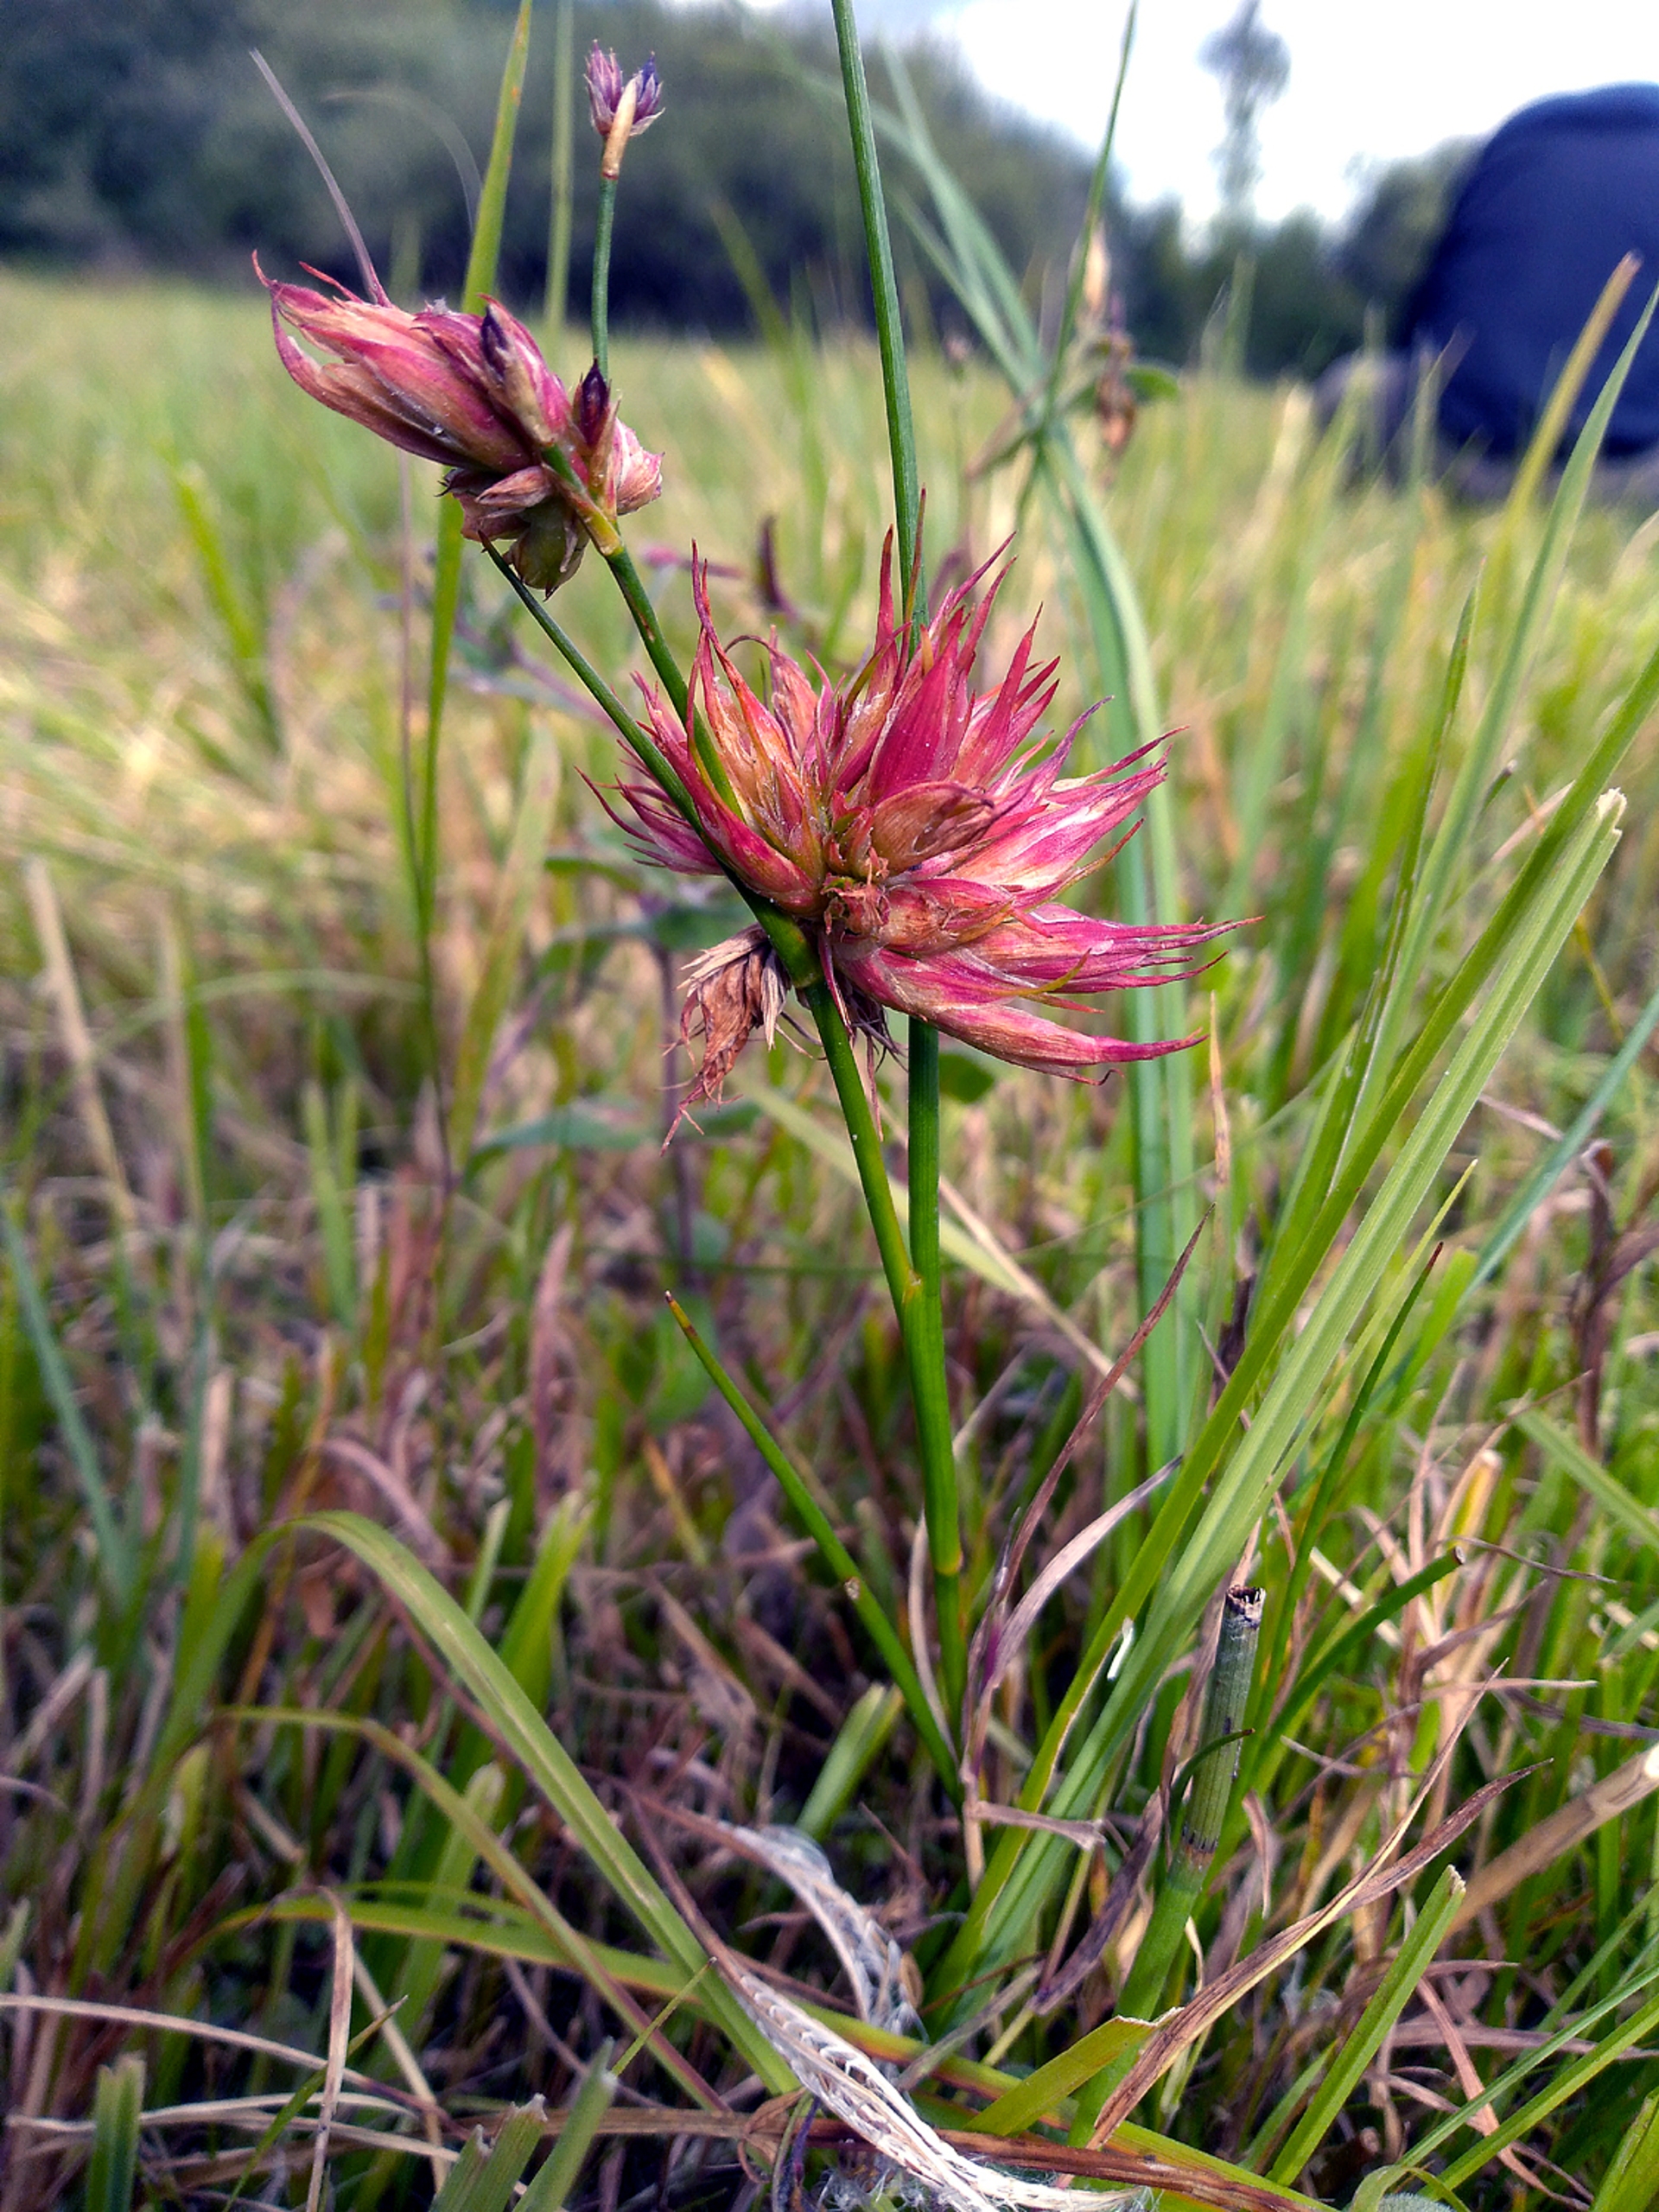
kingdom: Animalia
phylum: Arthropoda
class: Insecta
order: Hemiptera
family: Liviidae
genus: Livia
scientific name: Livia junci
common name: Sivbladloppe
